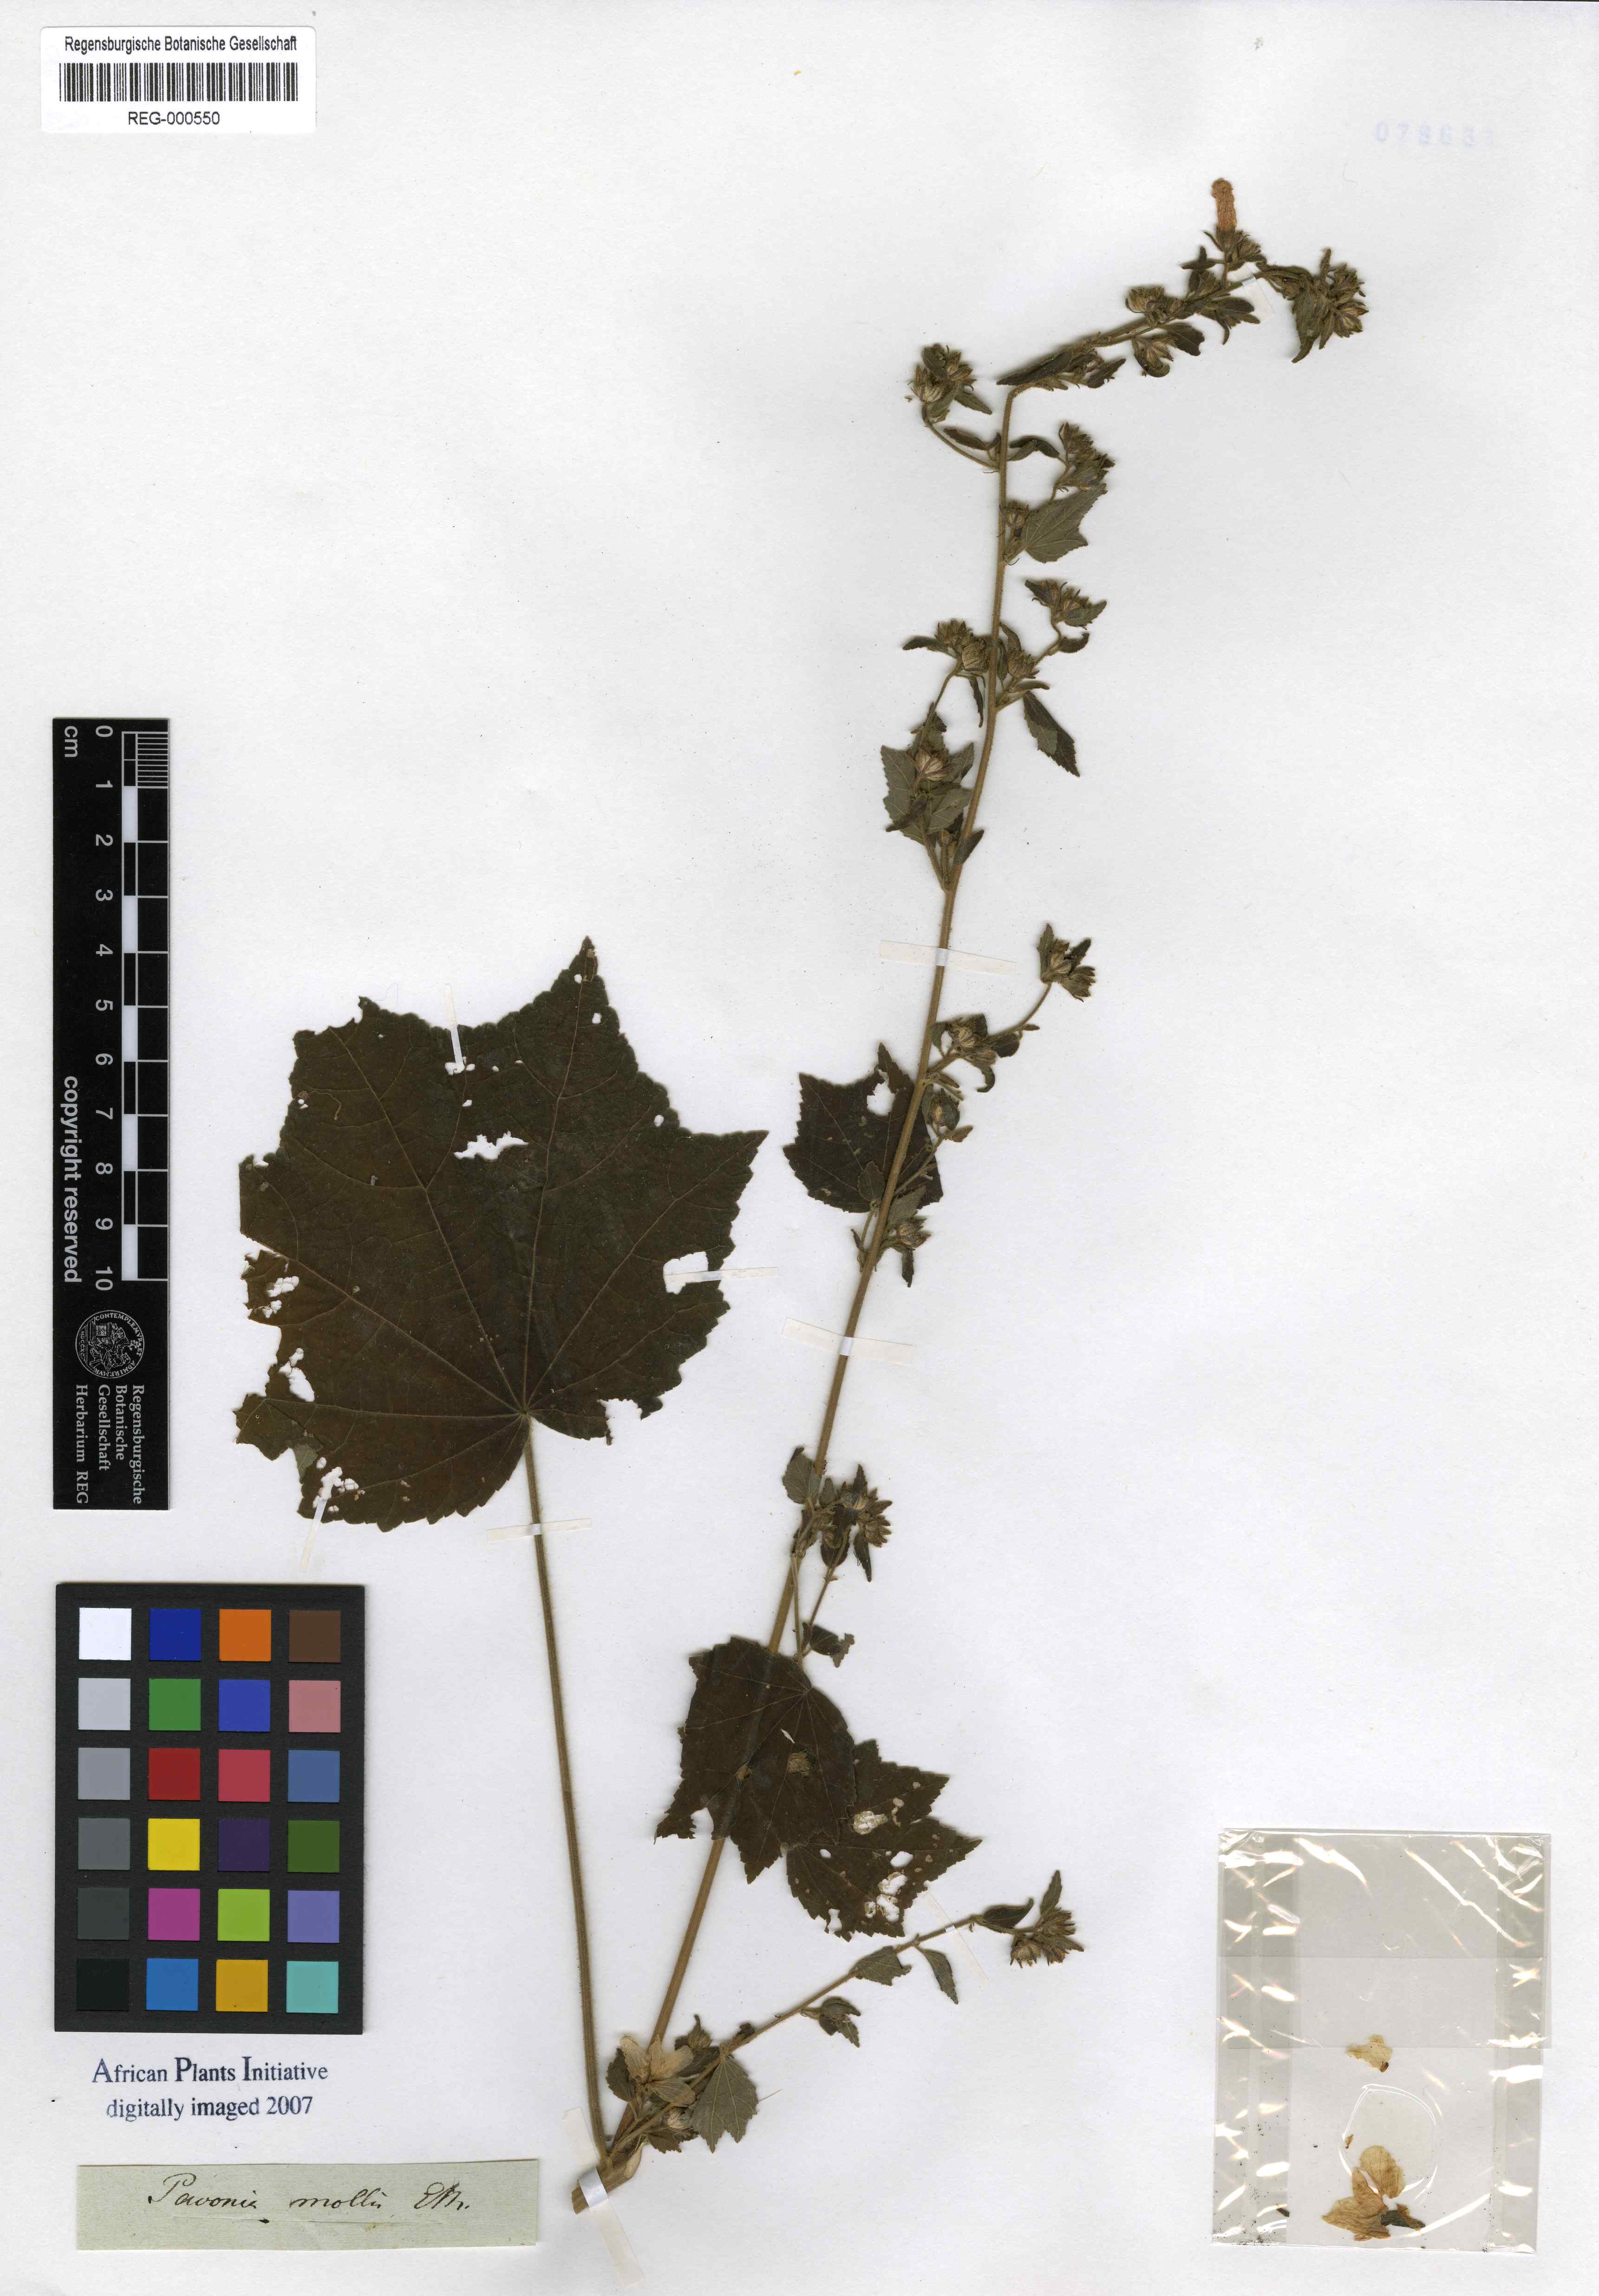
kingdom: Plantae
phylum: Tracheophyta
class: Magnoliopsida
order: Malvales
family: Malvaceae
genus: Pavonia
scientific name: Pavonia columella
